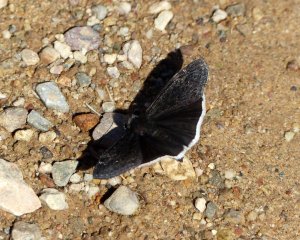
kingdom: Animalia
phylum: Arthropoda
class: Insecta
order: Lepidoptera
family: Hesperiidae
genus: Erynnis
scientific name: Erynnis funeralis
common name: Funereal Duskywing
